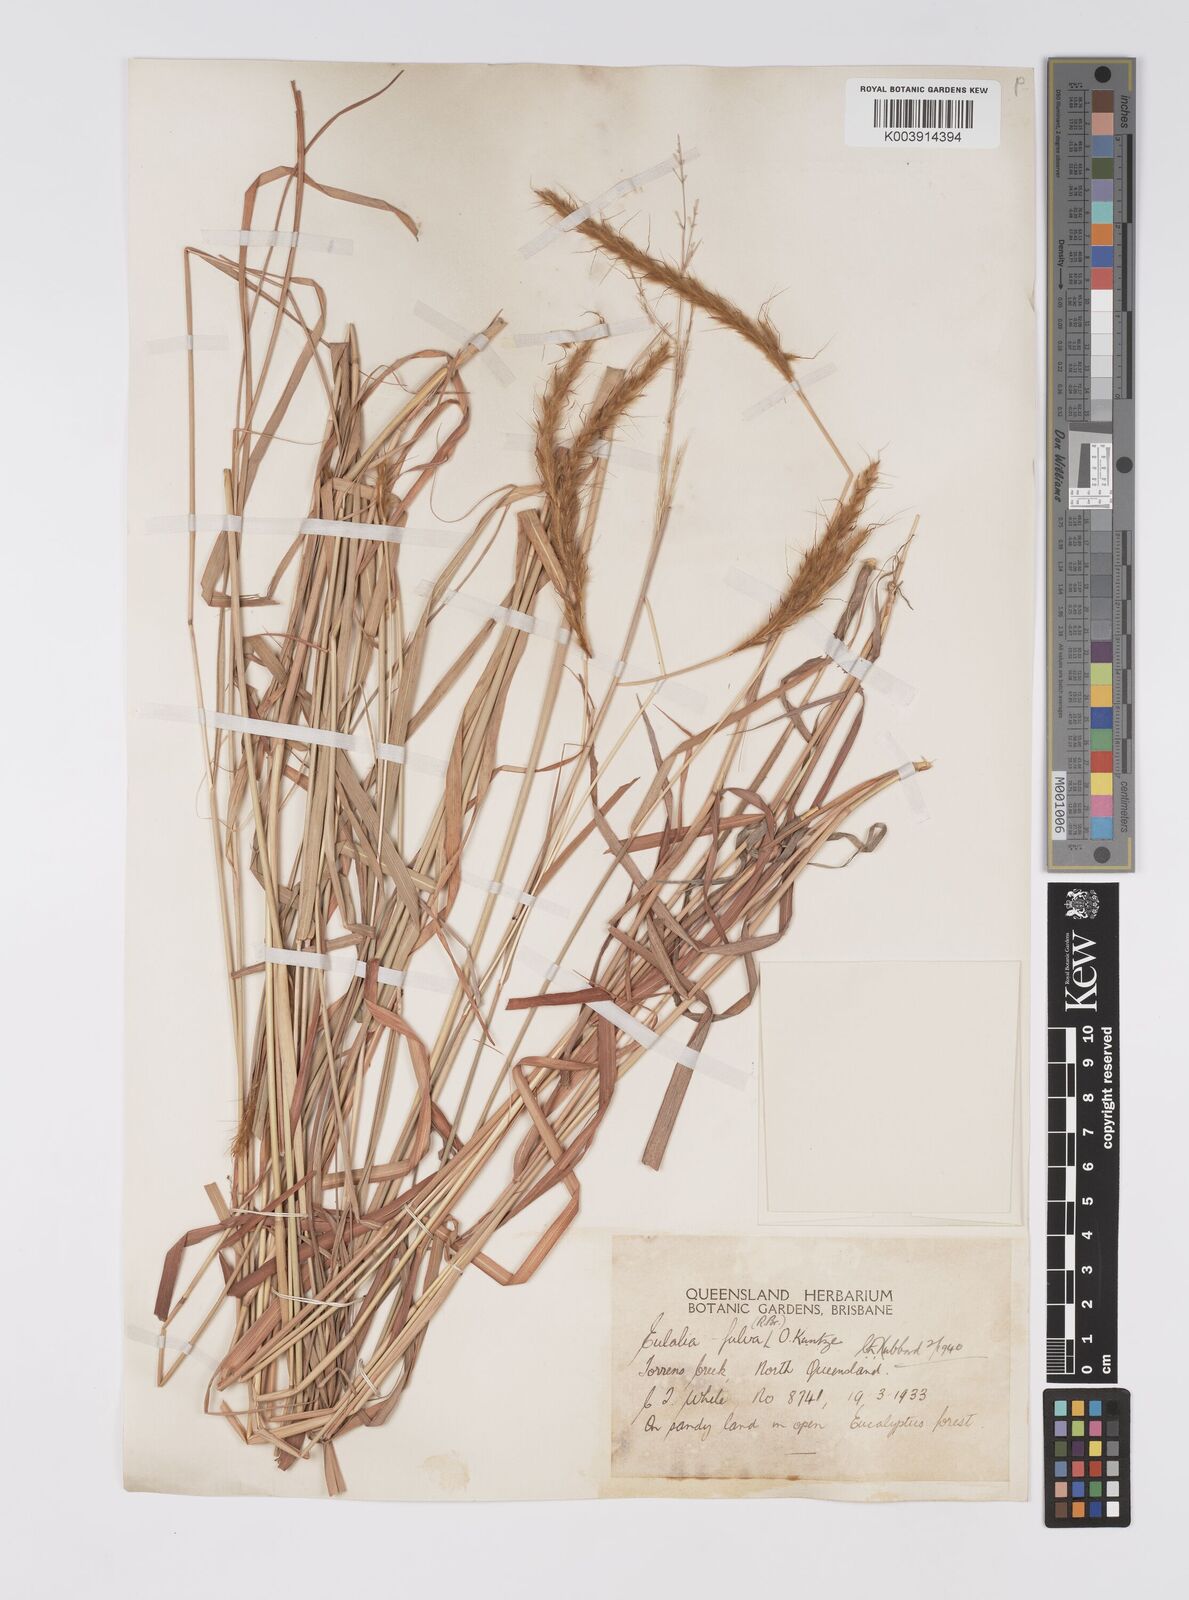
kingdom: Plantae
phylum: Tracheophyta
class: Liliopsida
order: Poales
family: Poaceae
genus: Eulalia
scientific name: Eulalia aurea
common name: Silky browntop
